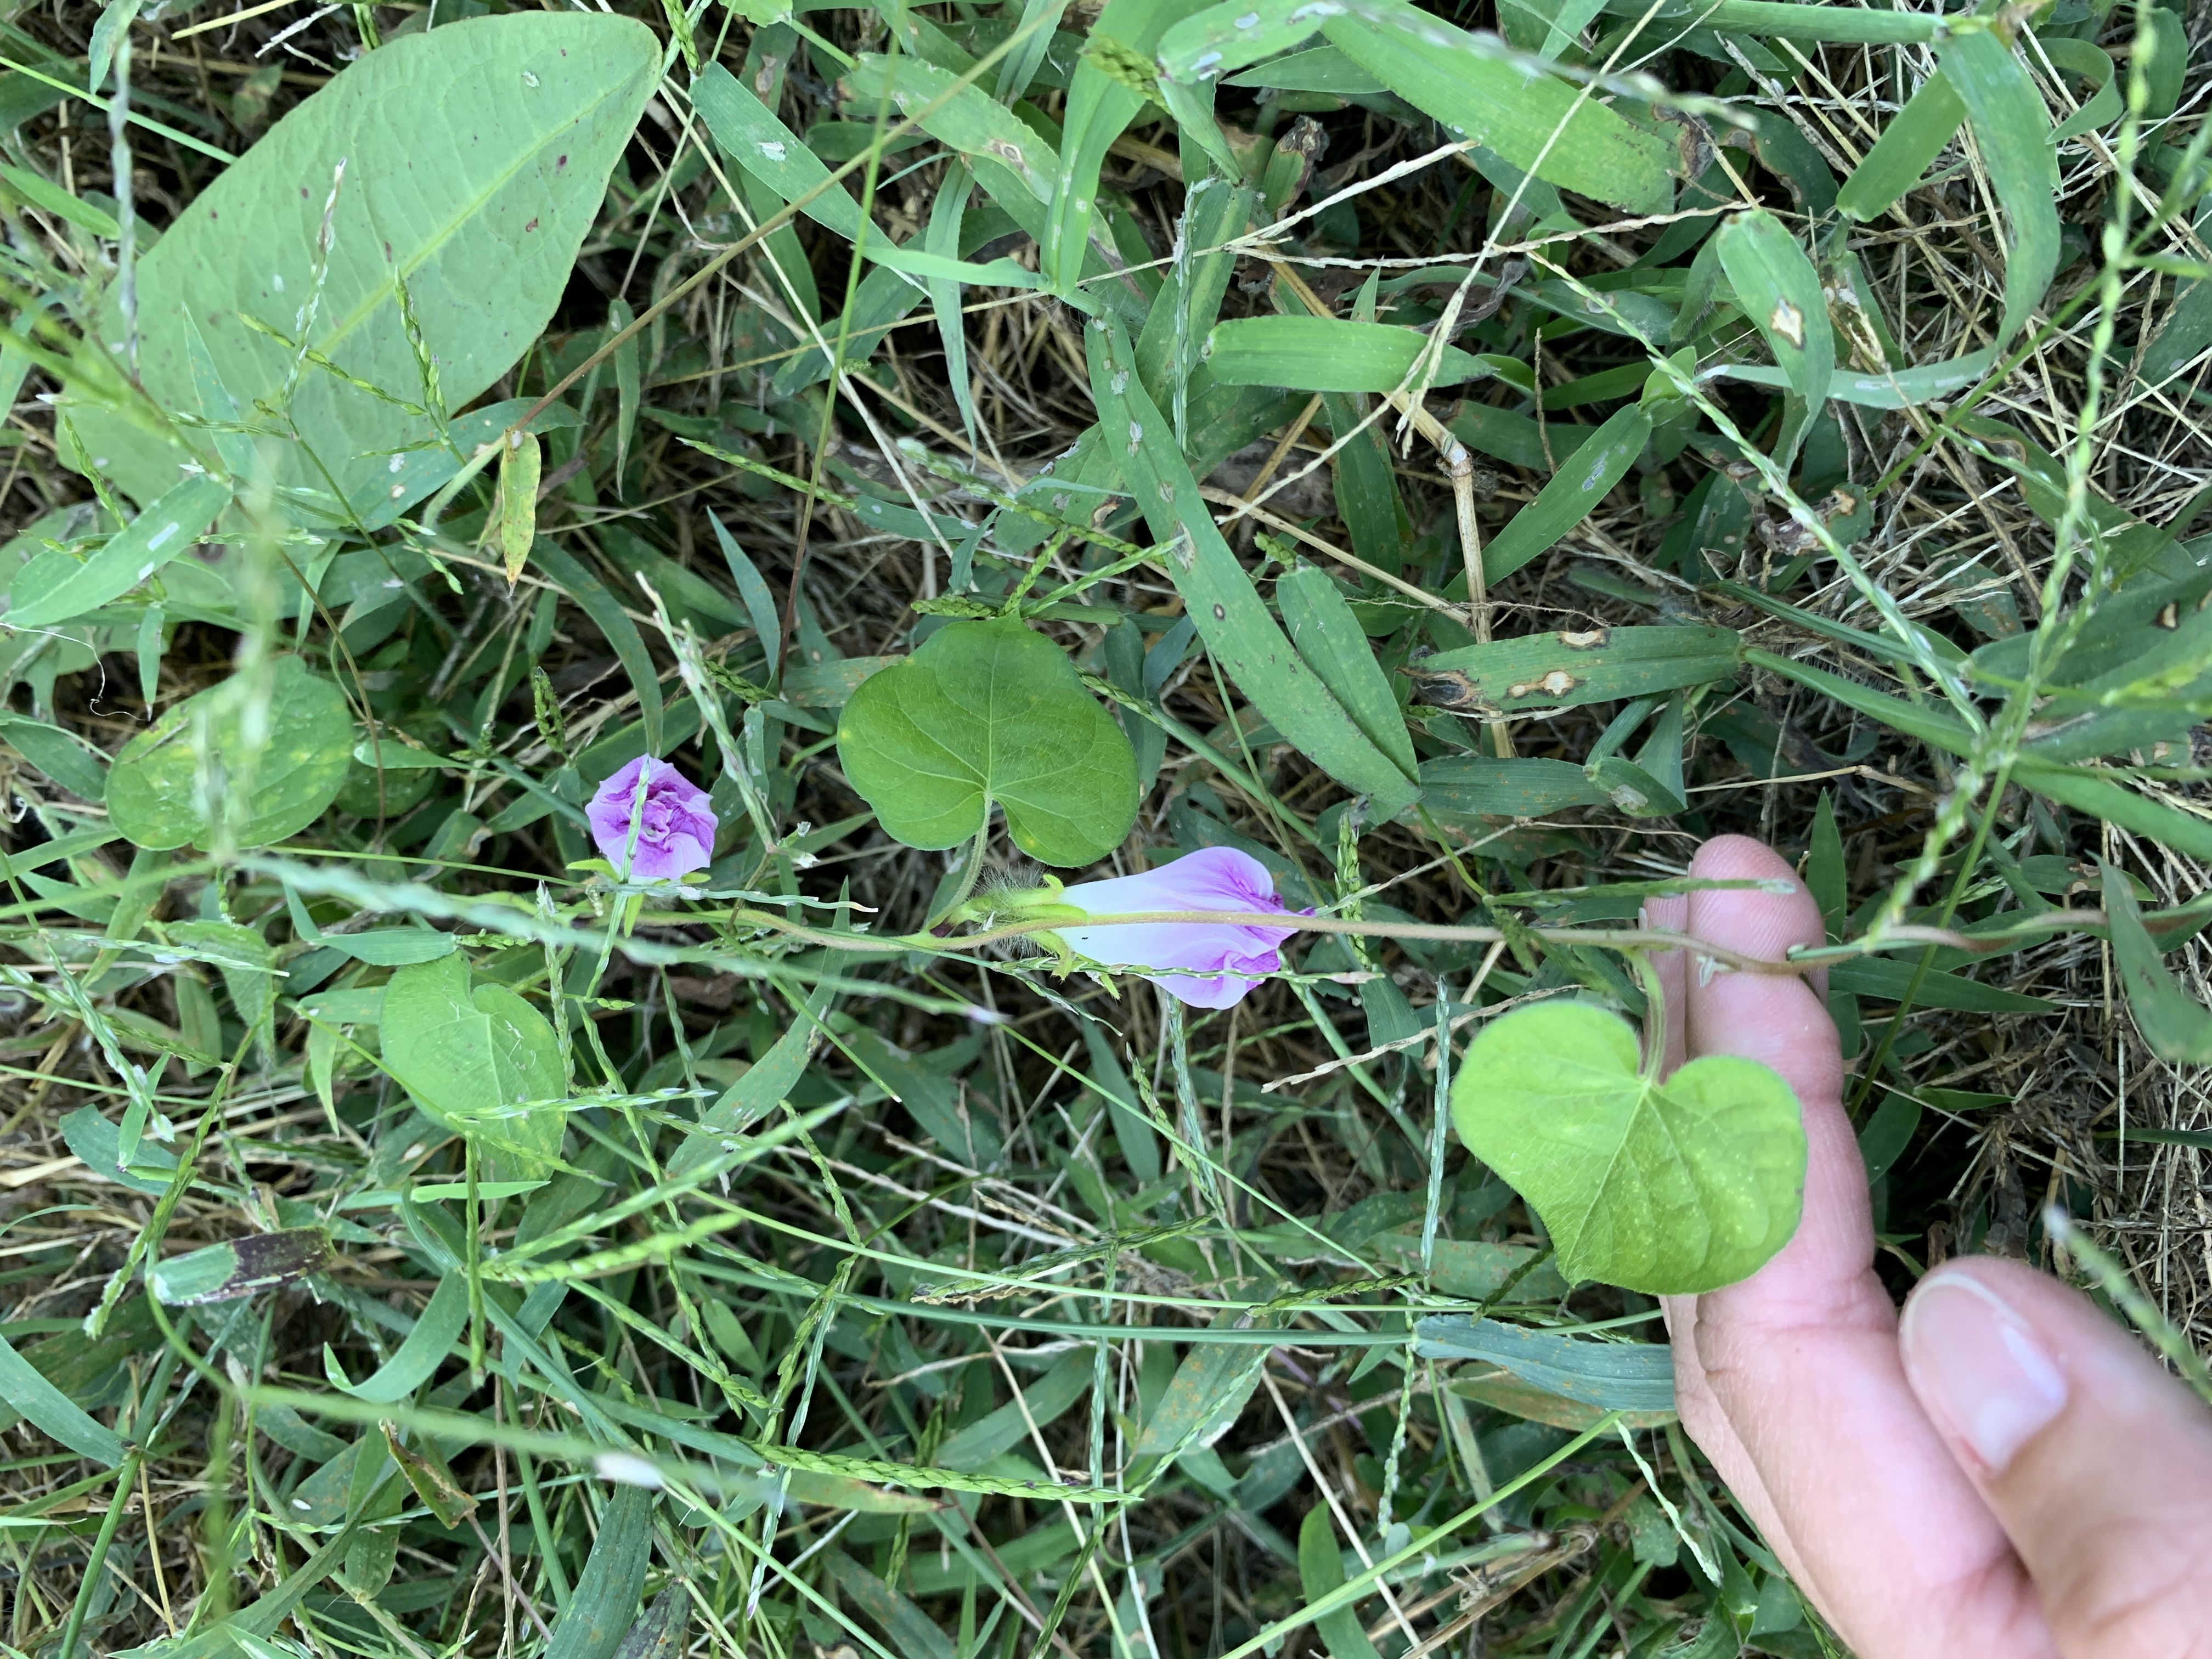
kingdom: Plantae
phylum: Tracheophyta
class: Magnoliopsida
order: Solanales
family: Convolvulaceae
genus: Ipomoea
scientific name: Ipomoea purpurea
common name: Common Morning Glory
